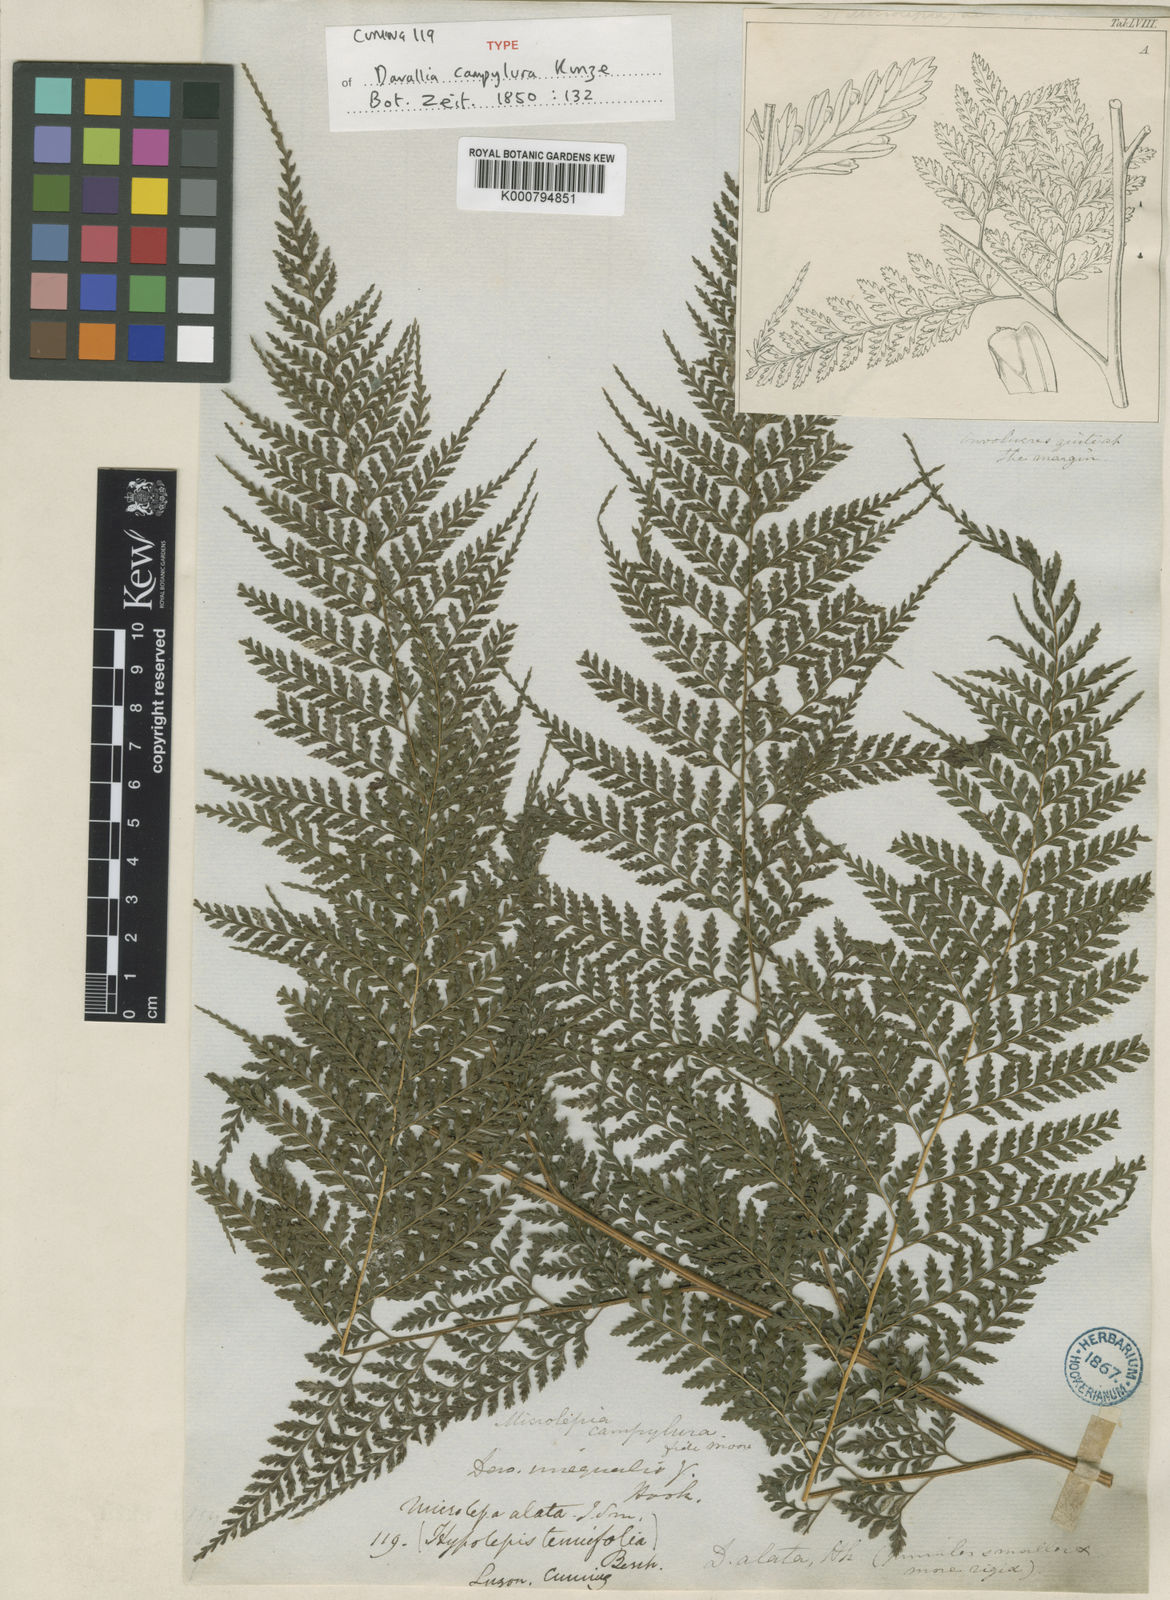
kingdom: Plantae
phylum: Tracheophyta
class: Polypodiopsida
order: Polypodiales
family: Saccolomataceae
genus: Orthiopteris
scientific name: Orthiopteris campylura
